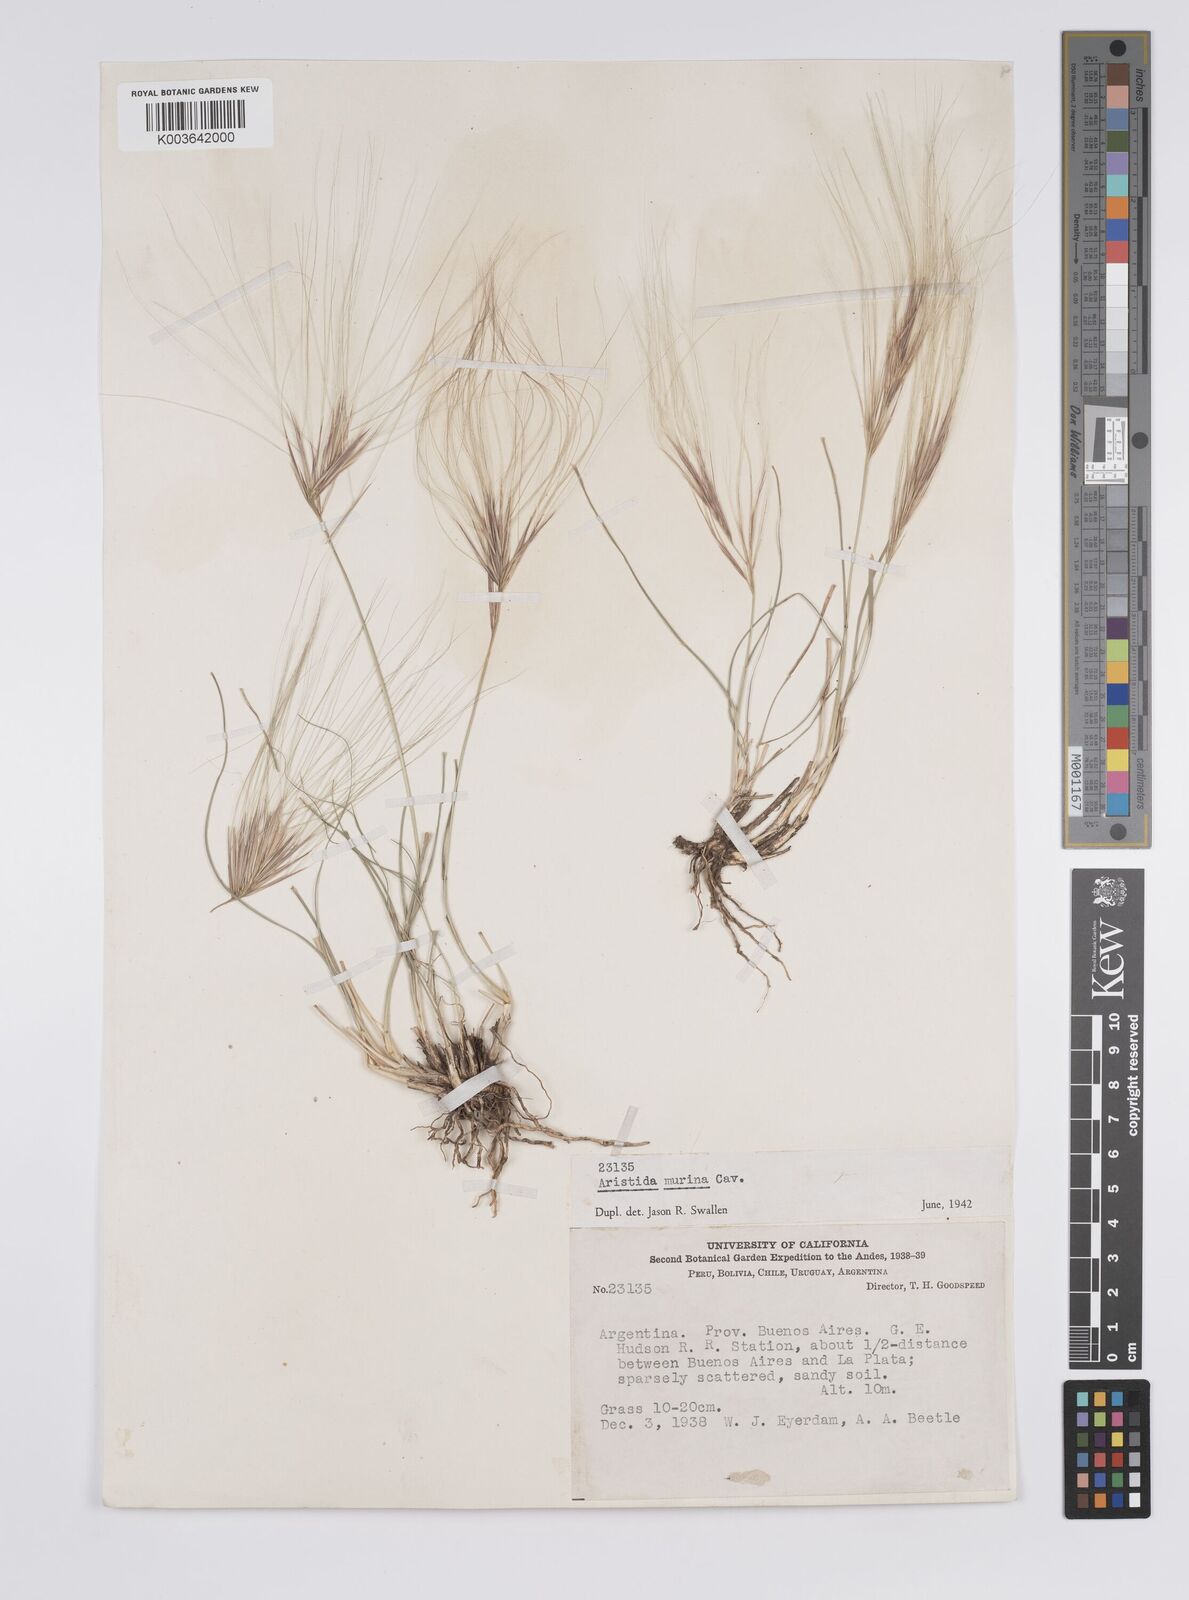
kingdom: Plantae
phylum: Tracheophyta
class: Liliopsida
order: Poales
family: Poaceae
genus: Aristida
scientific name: Aristida murina
